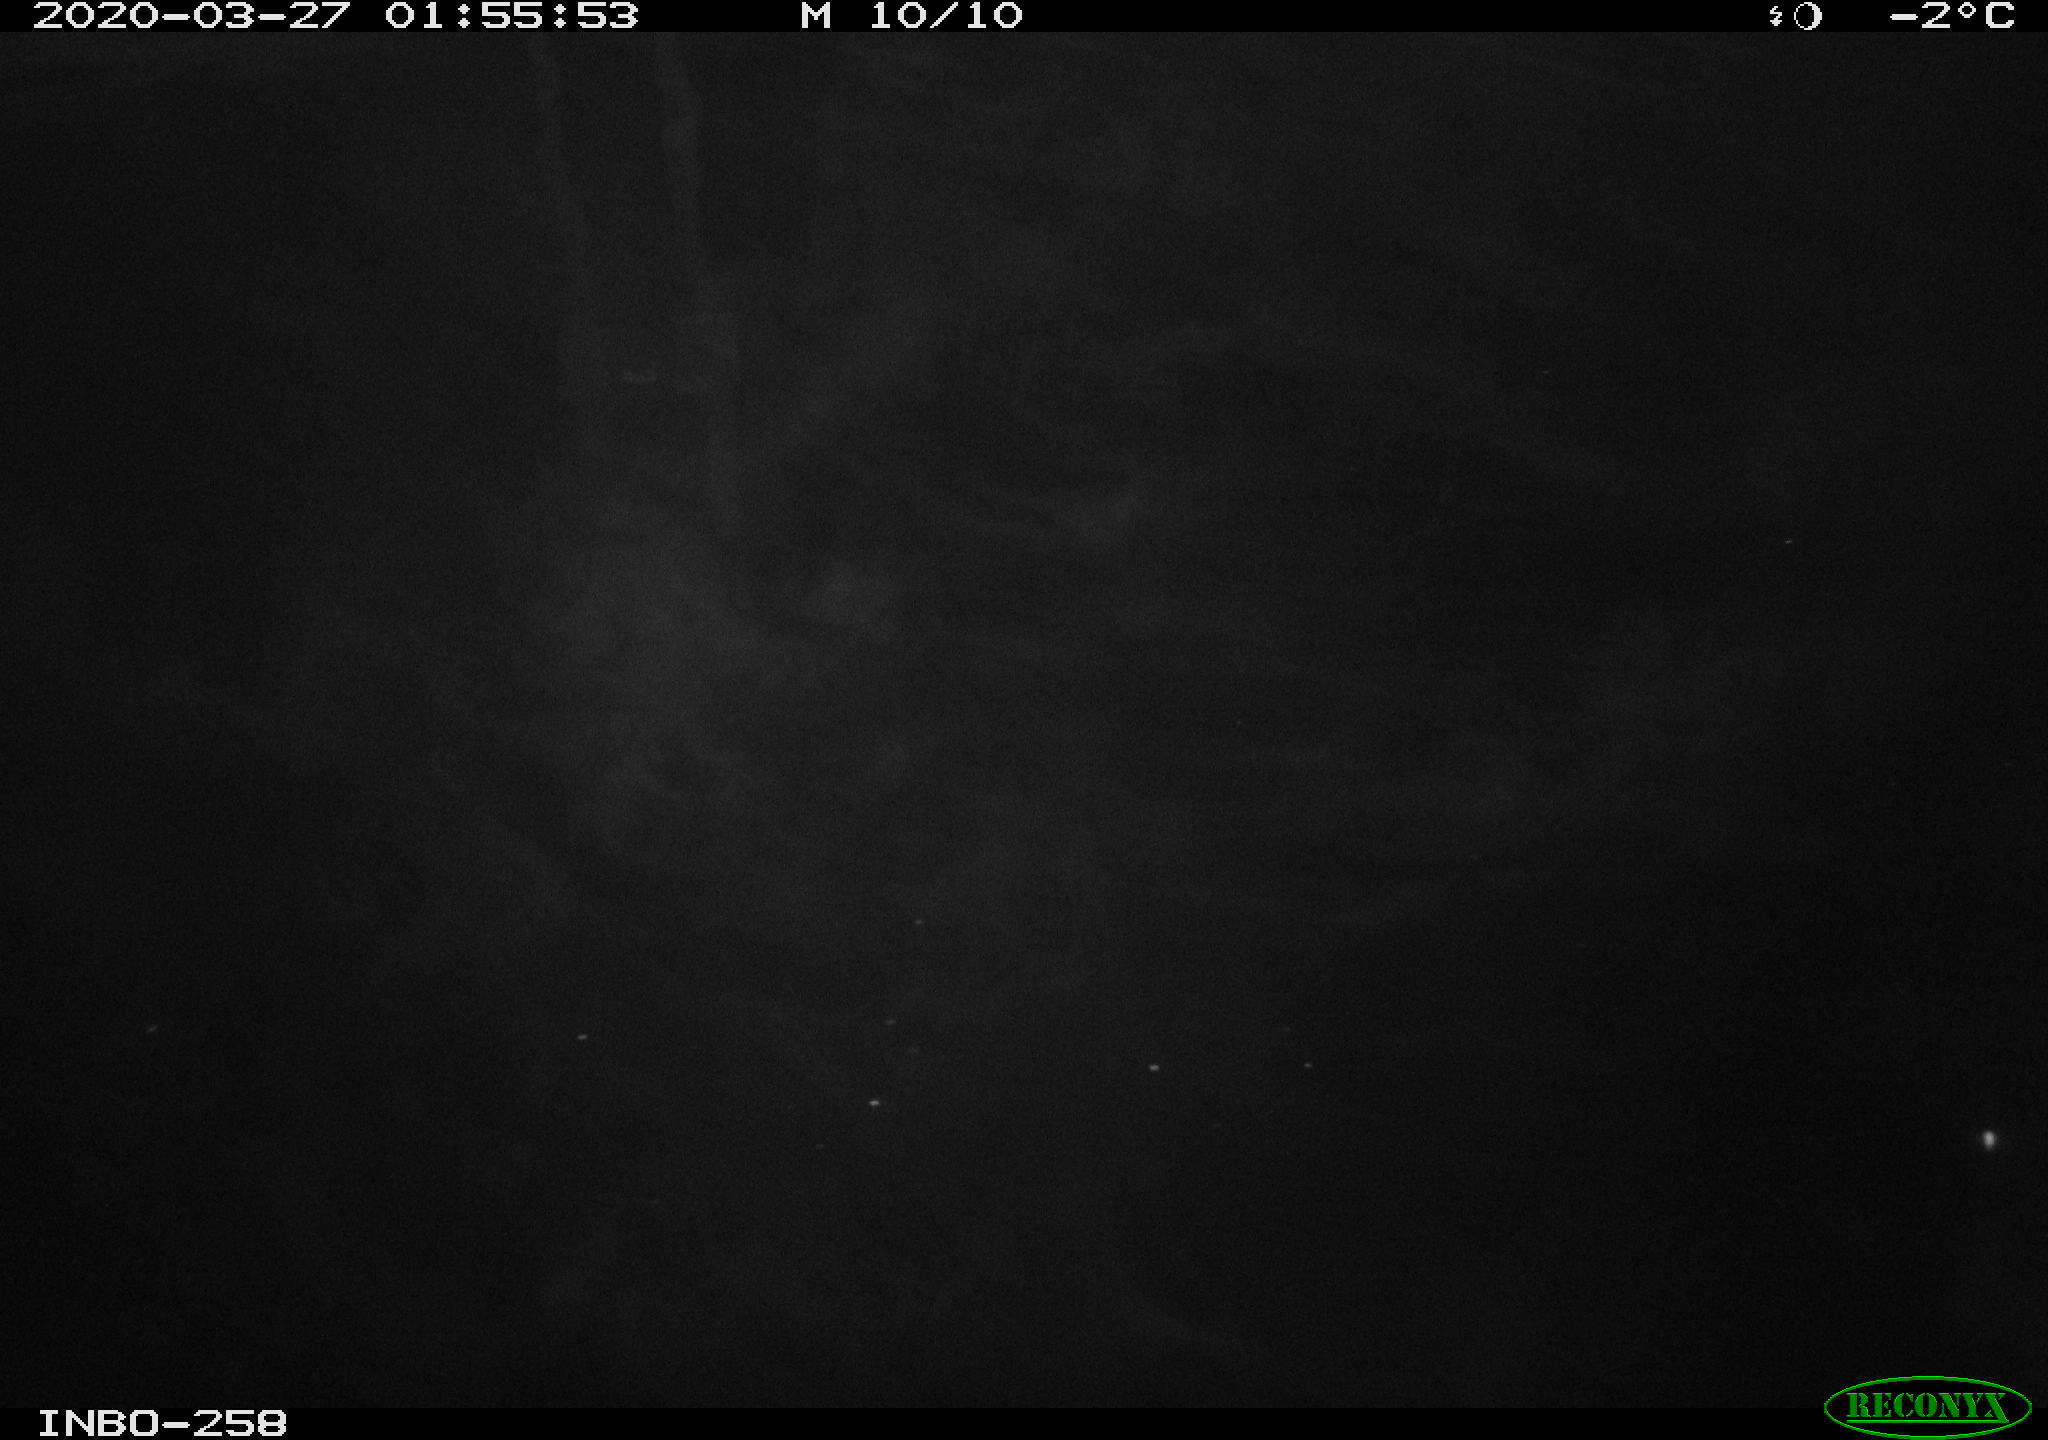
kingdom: Animalia
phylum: Chordata
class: Aves
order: Anseriformes
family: Anatidae
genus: Anas
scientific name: Anas platyrhynchos
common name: Mallard
